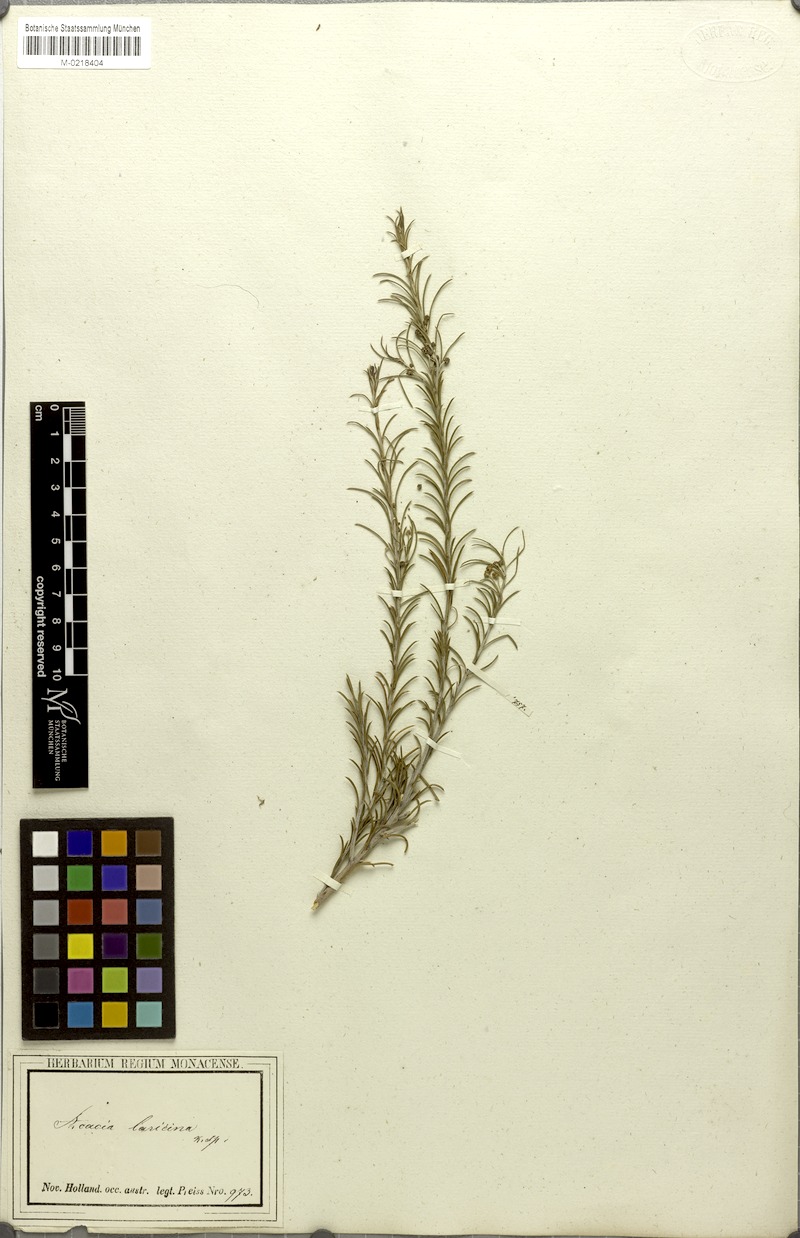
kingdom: Plantae
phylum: Tracheophyta
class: Magnoliopsida
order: Fabales
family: Fabaceae
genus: Acacia
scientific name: Acacia laricina
